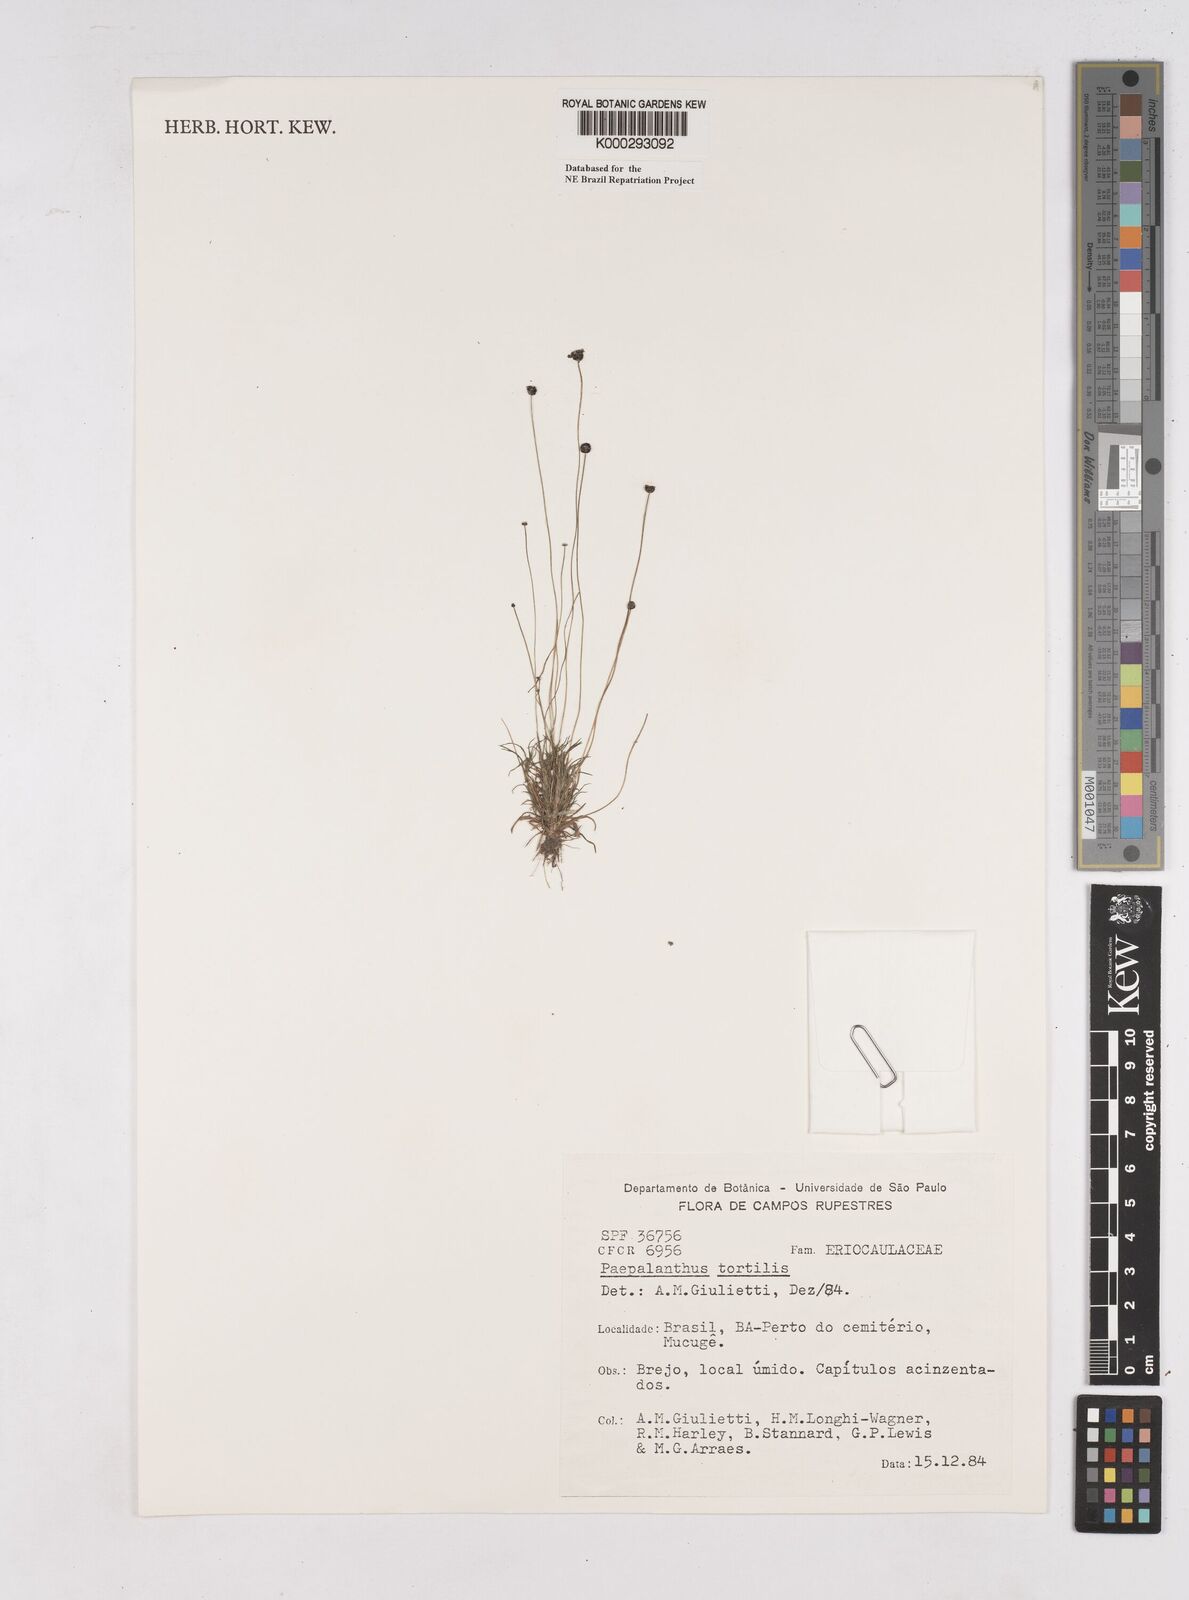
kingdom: Plantae
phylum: Tracheophyta
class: Liliopsida
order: Poales
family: Eriocaulaceae
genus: Paepalanthus
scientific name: Paepalanthus
